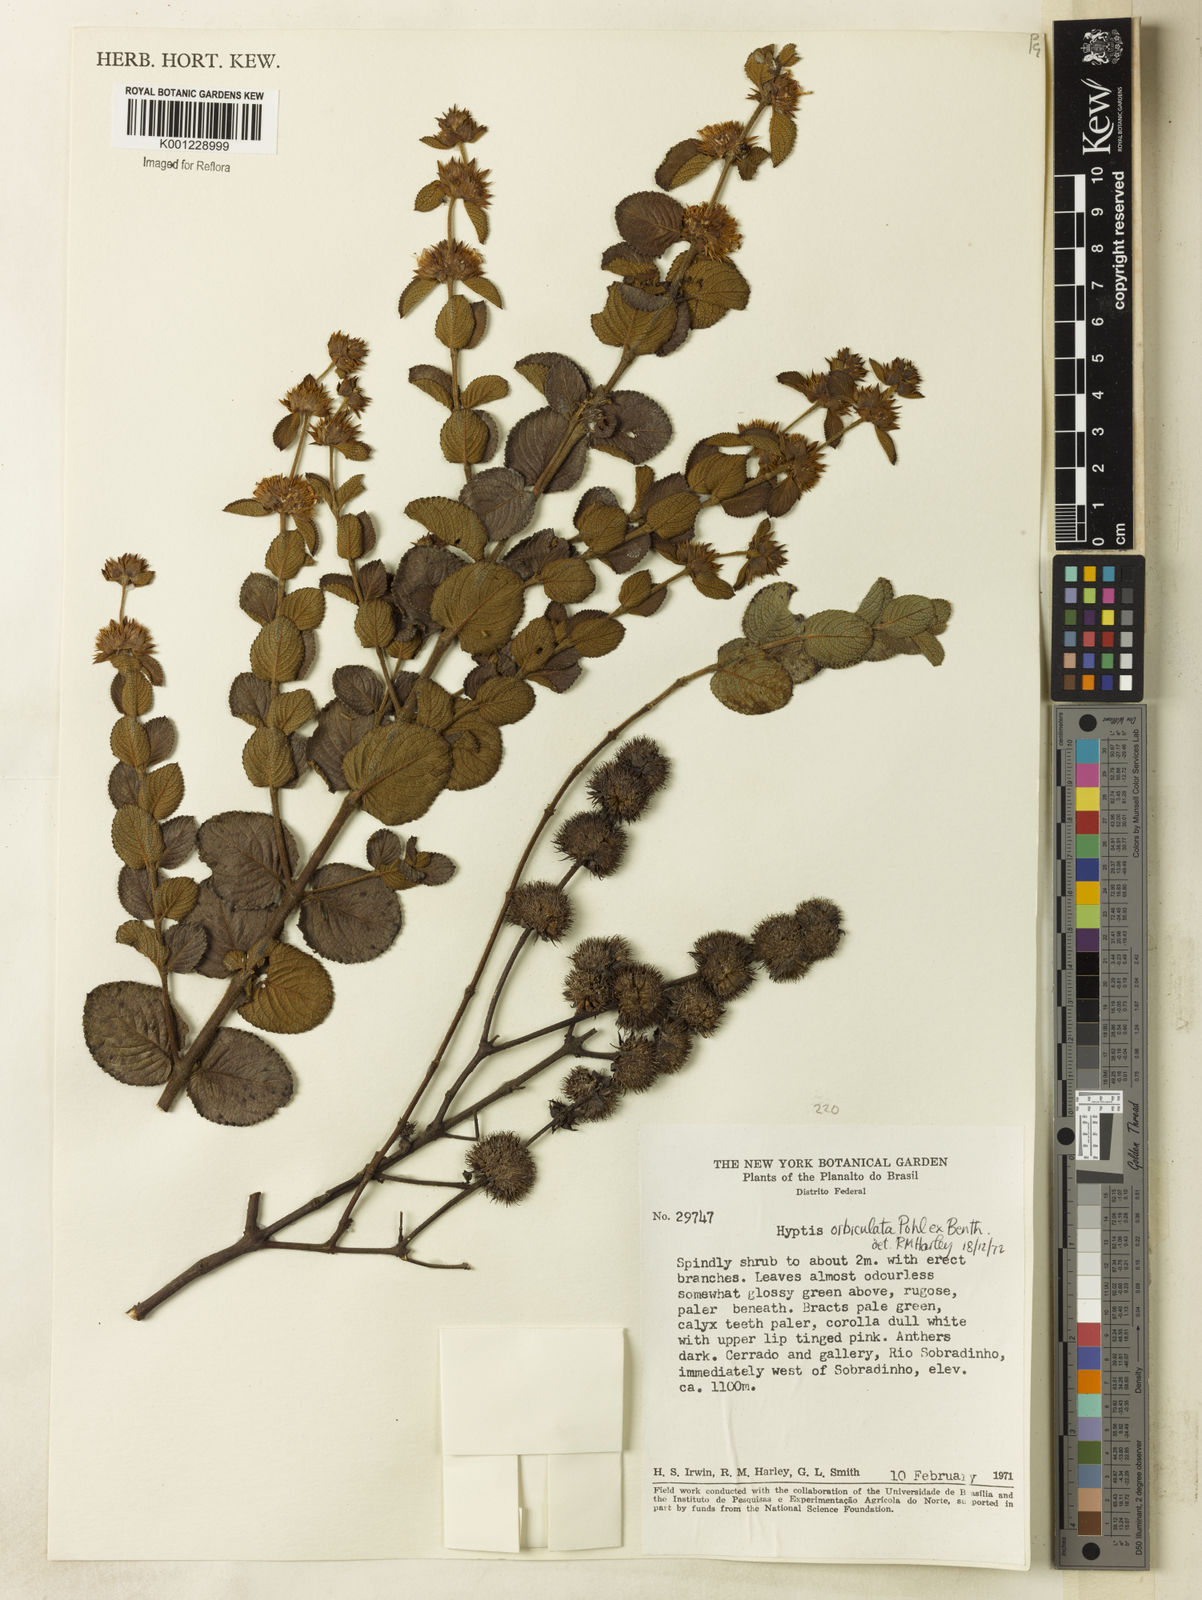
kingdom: Plantae
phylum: Tracheophyta
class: Magnoliopsida
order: Lamiales
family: Lamiaceae
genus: Hyptis
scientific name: Hyptis orbiculata
